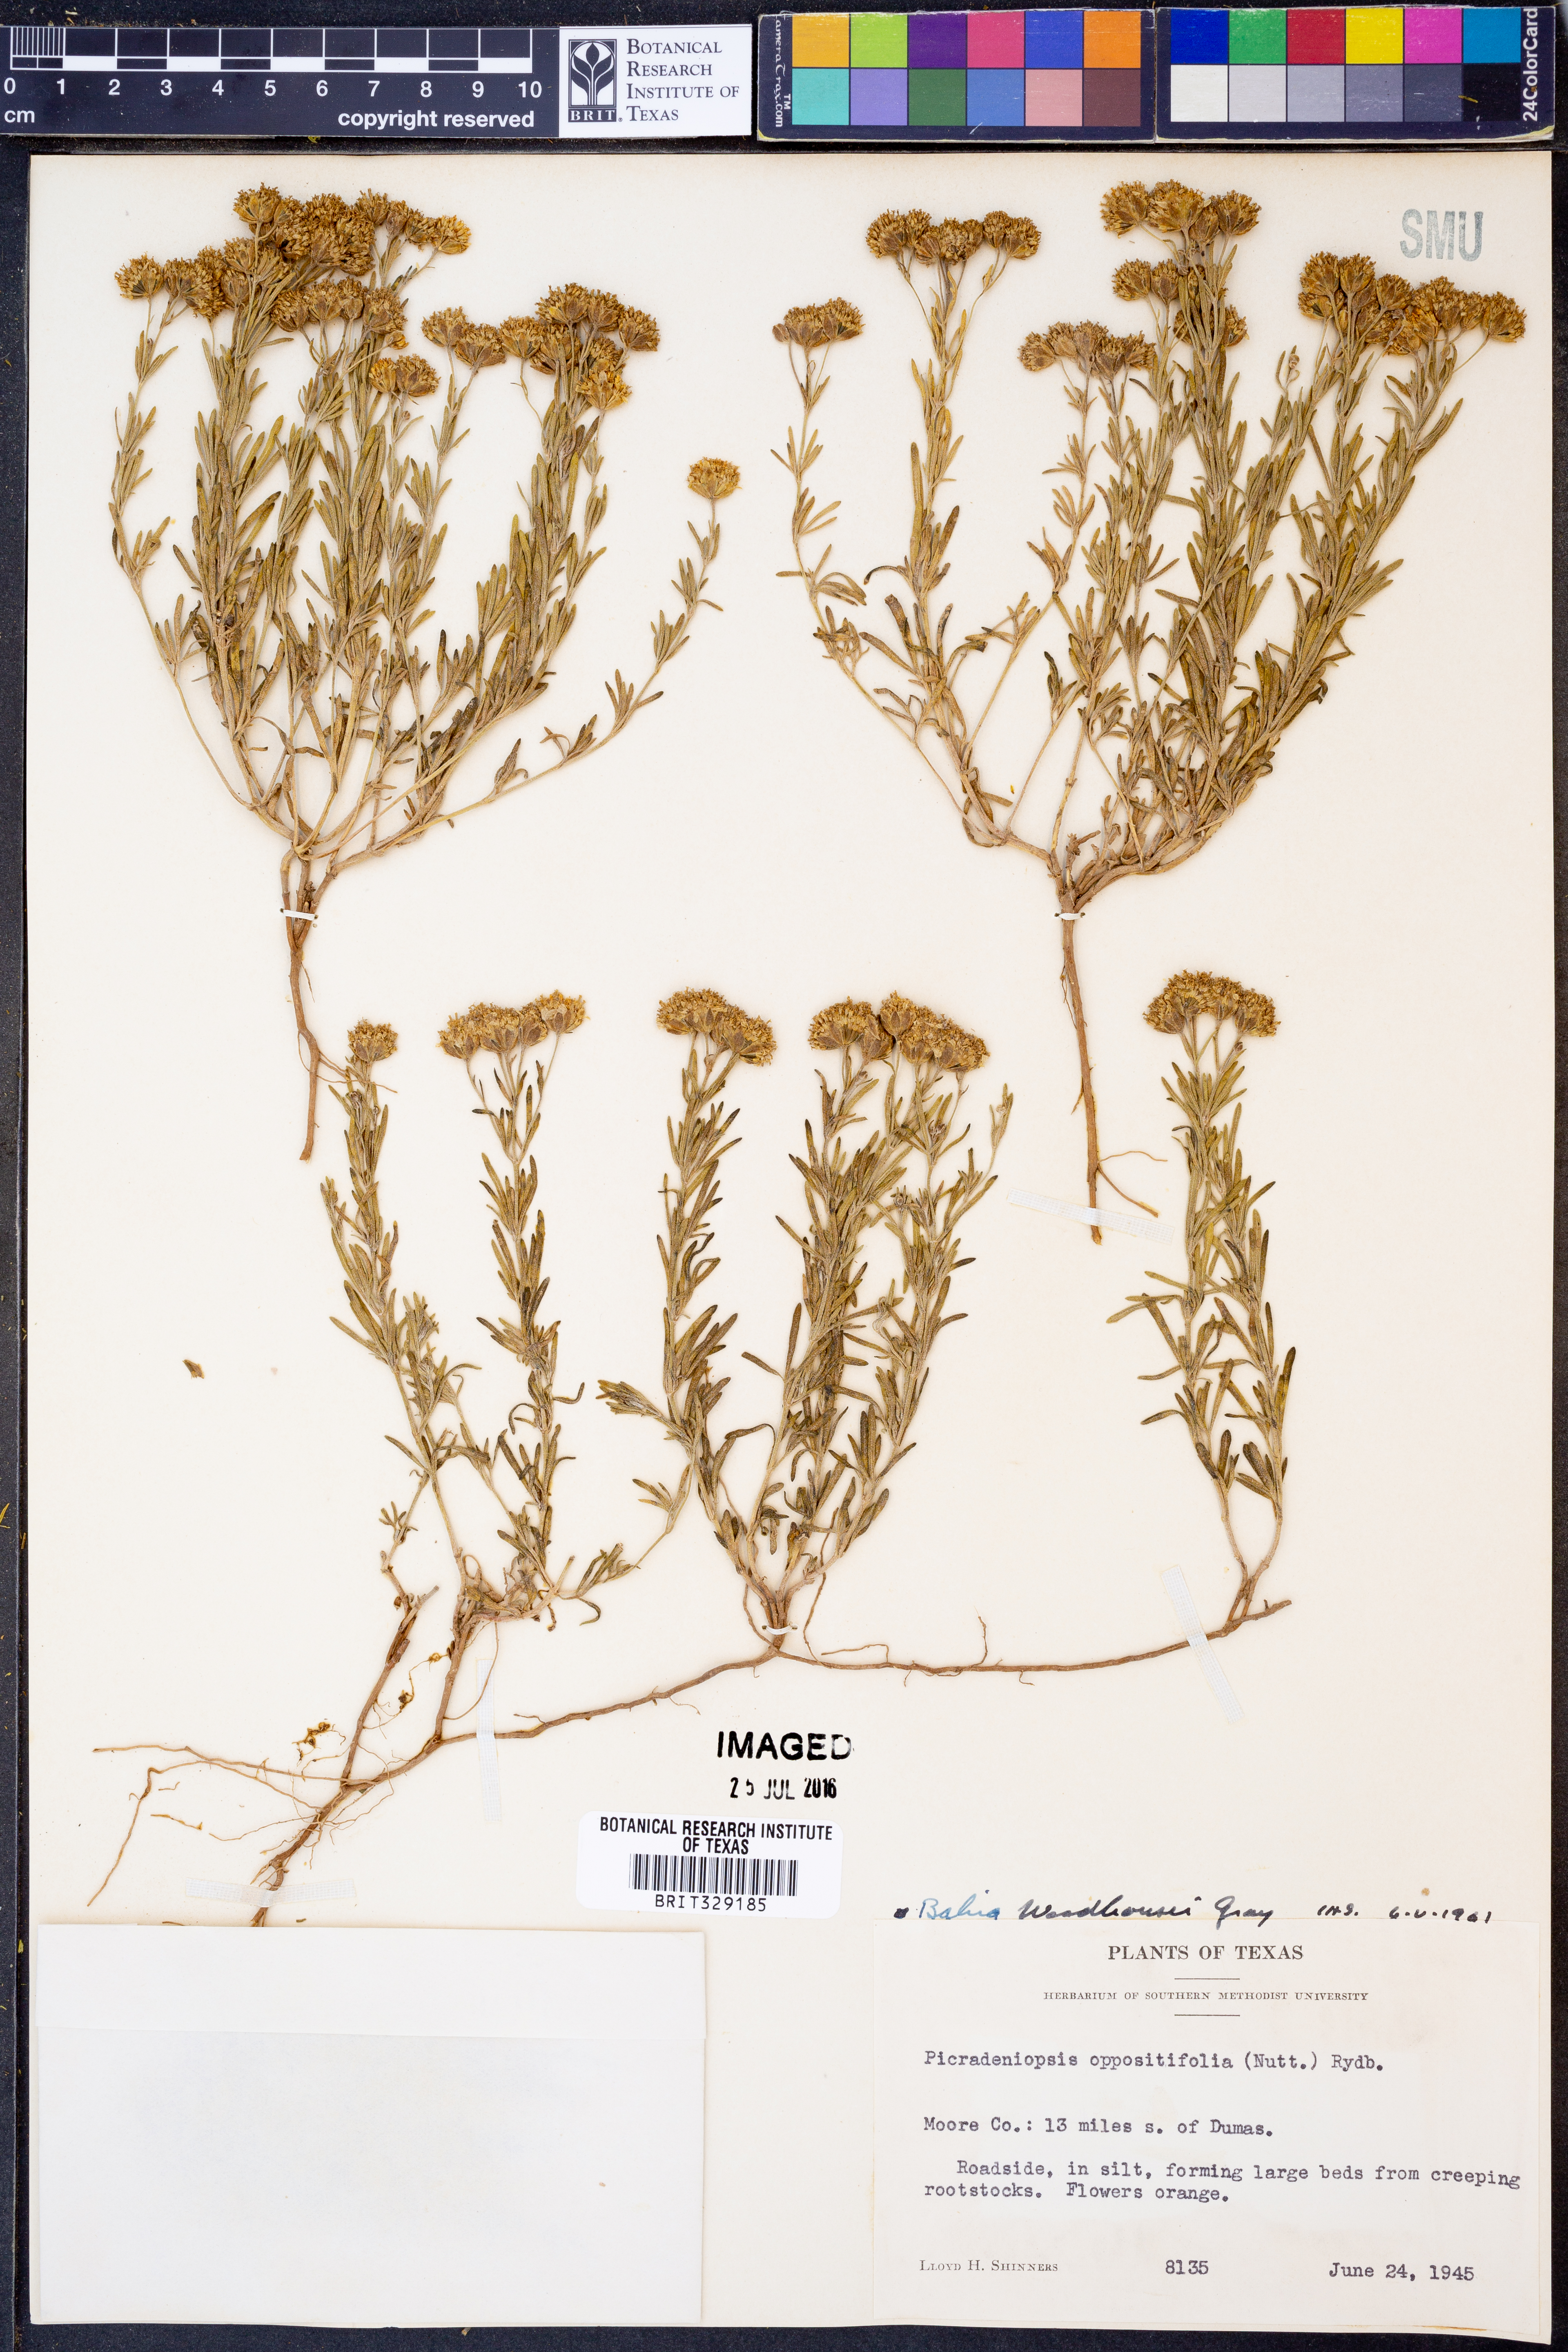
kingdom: Plantae
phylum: Tracheophyta
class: Magnoliopsida
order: Asterales
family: Asteraceae
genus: Picradeniopsis
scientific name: Picradeniopsis woodhousei
